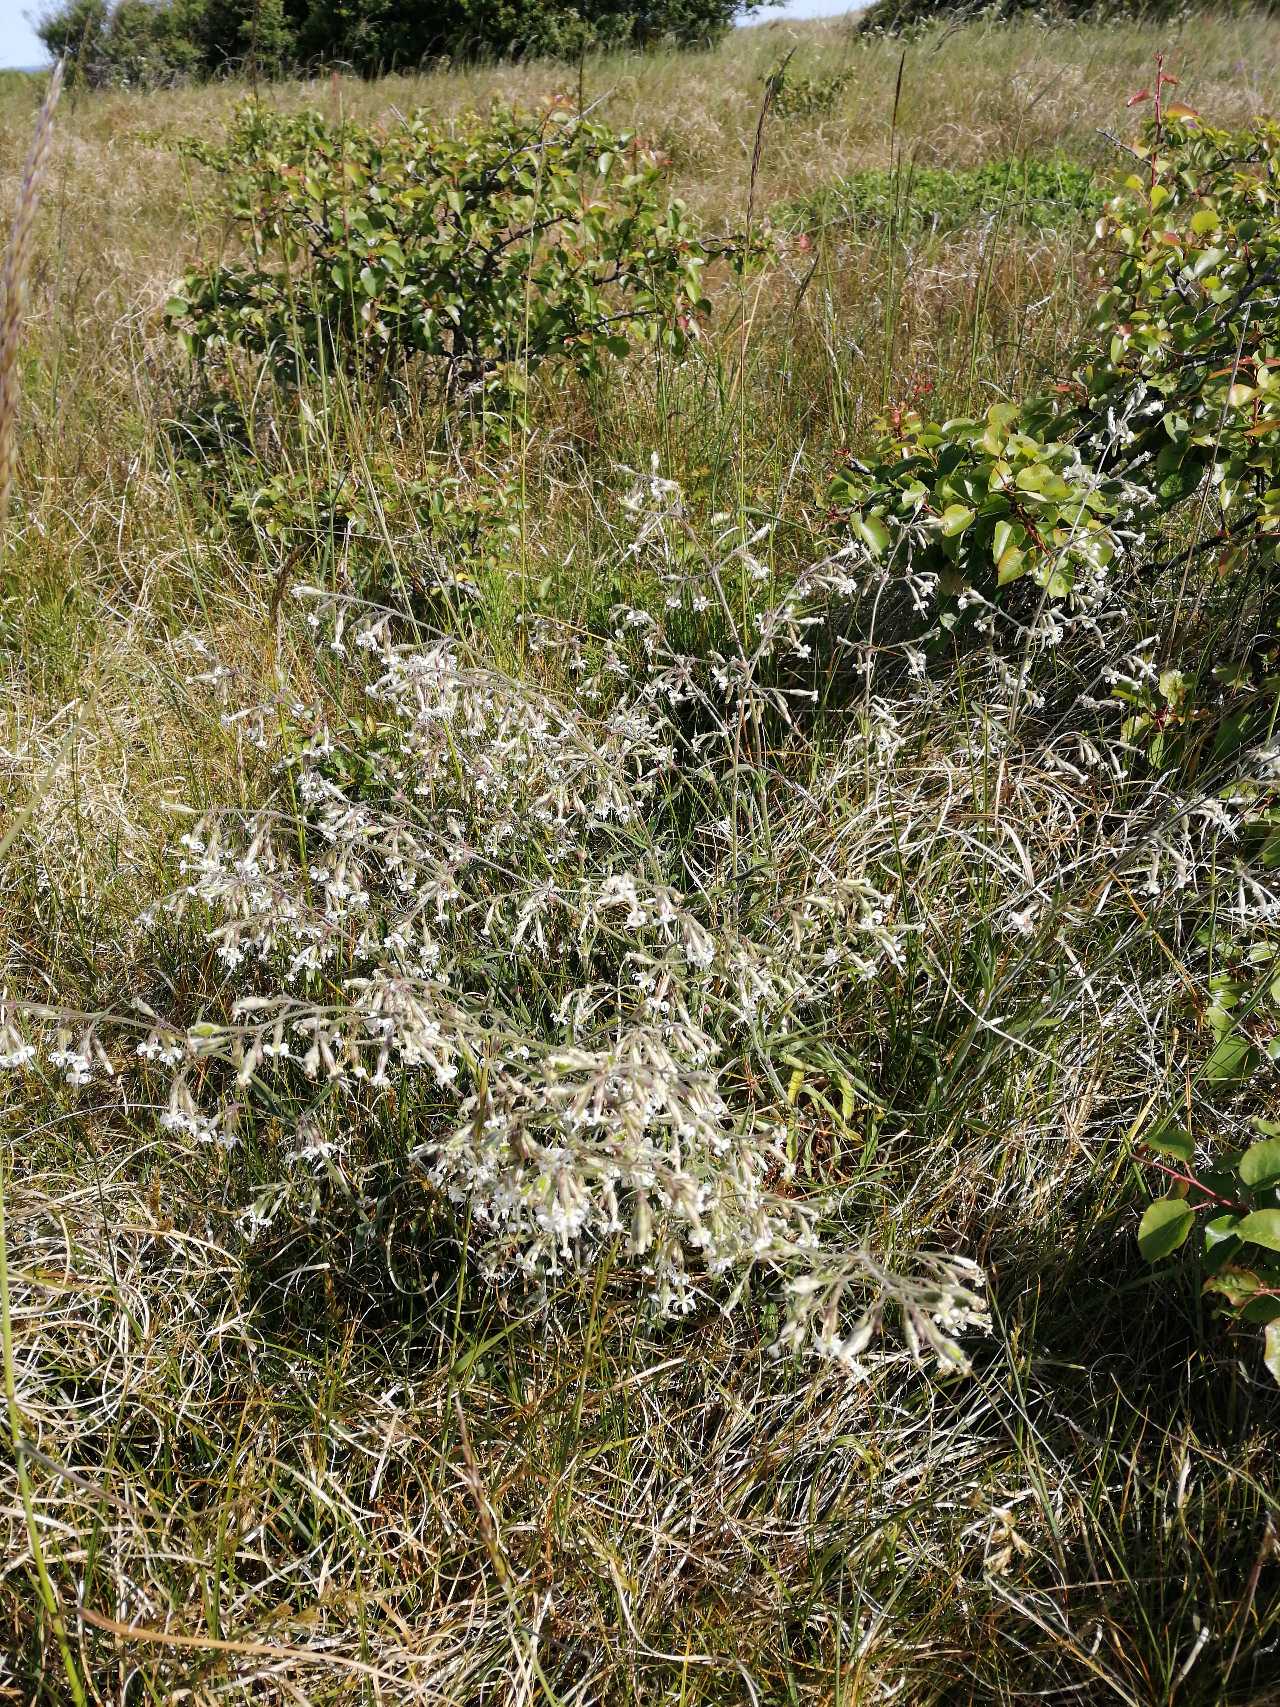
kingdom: Plantae
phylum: Tracheophyta
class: Magnoliopsida
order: Caryophyllales
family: Caryophyllaceae
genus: Silene
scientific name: Silene nutans
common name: Nikkende limurt
